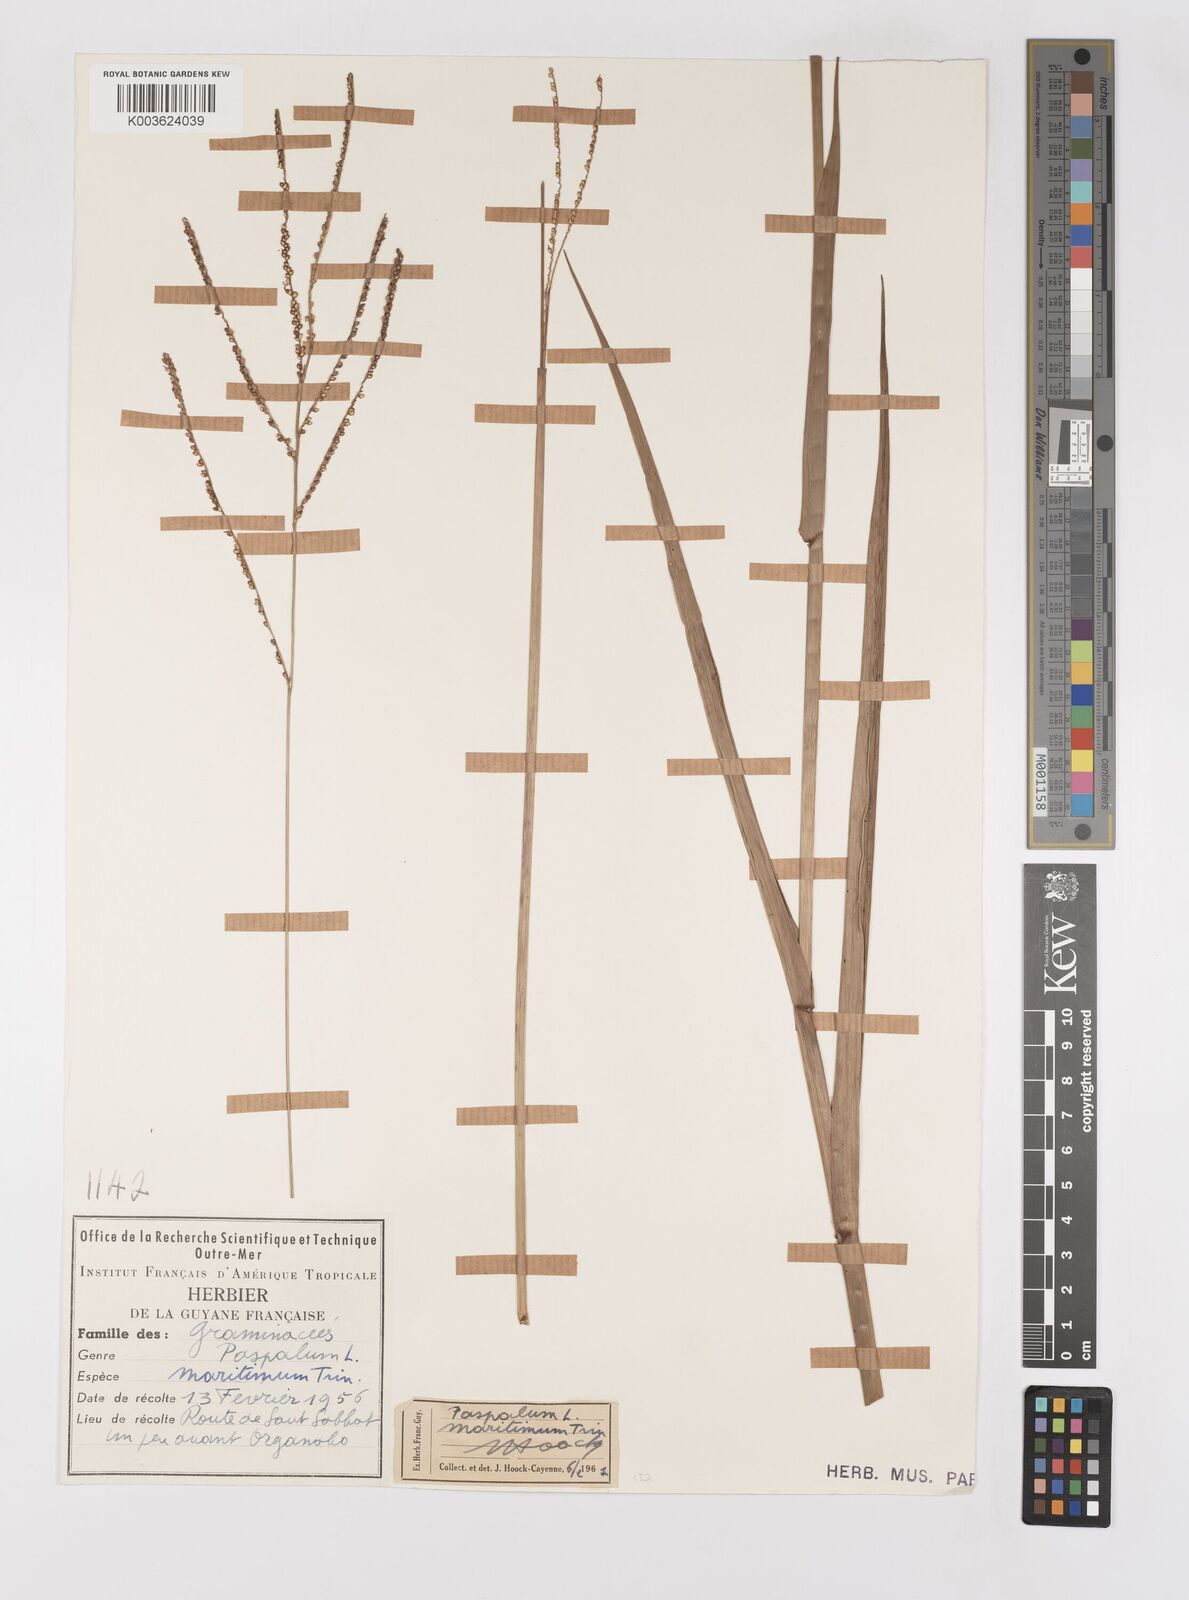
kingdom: Plantae
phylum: Tracheophyta
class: Liliopsida
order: Poales
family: Poaceae
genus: Paspalum
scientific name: Paspalum maritimum
